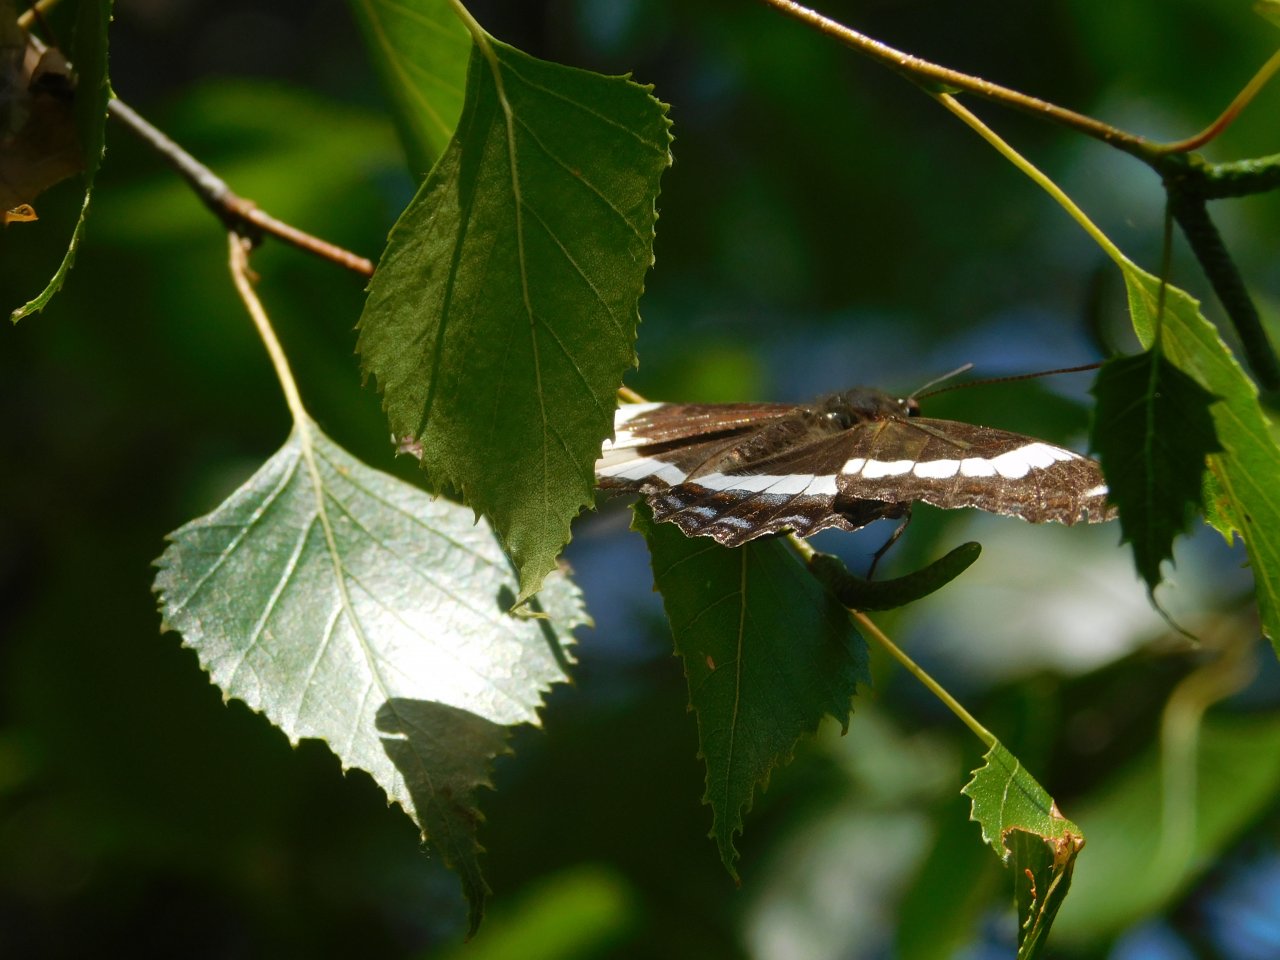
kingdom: Animalia
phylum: Arthropoda
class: Insecta
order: Lepidoptera
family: Nymphalidae
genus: Limenitis
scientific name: Limenitis arthemis
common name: Red-spotted Admiral
